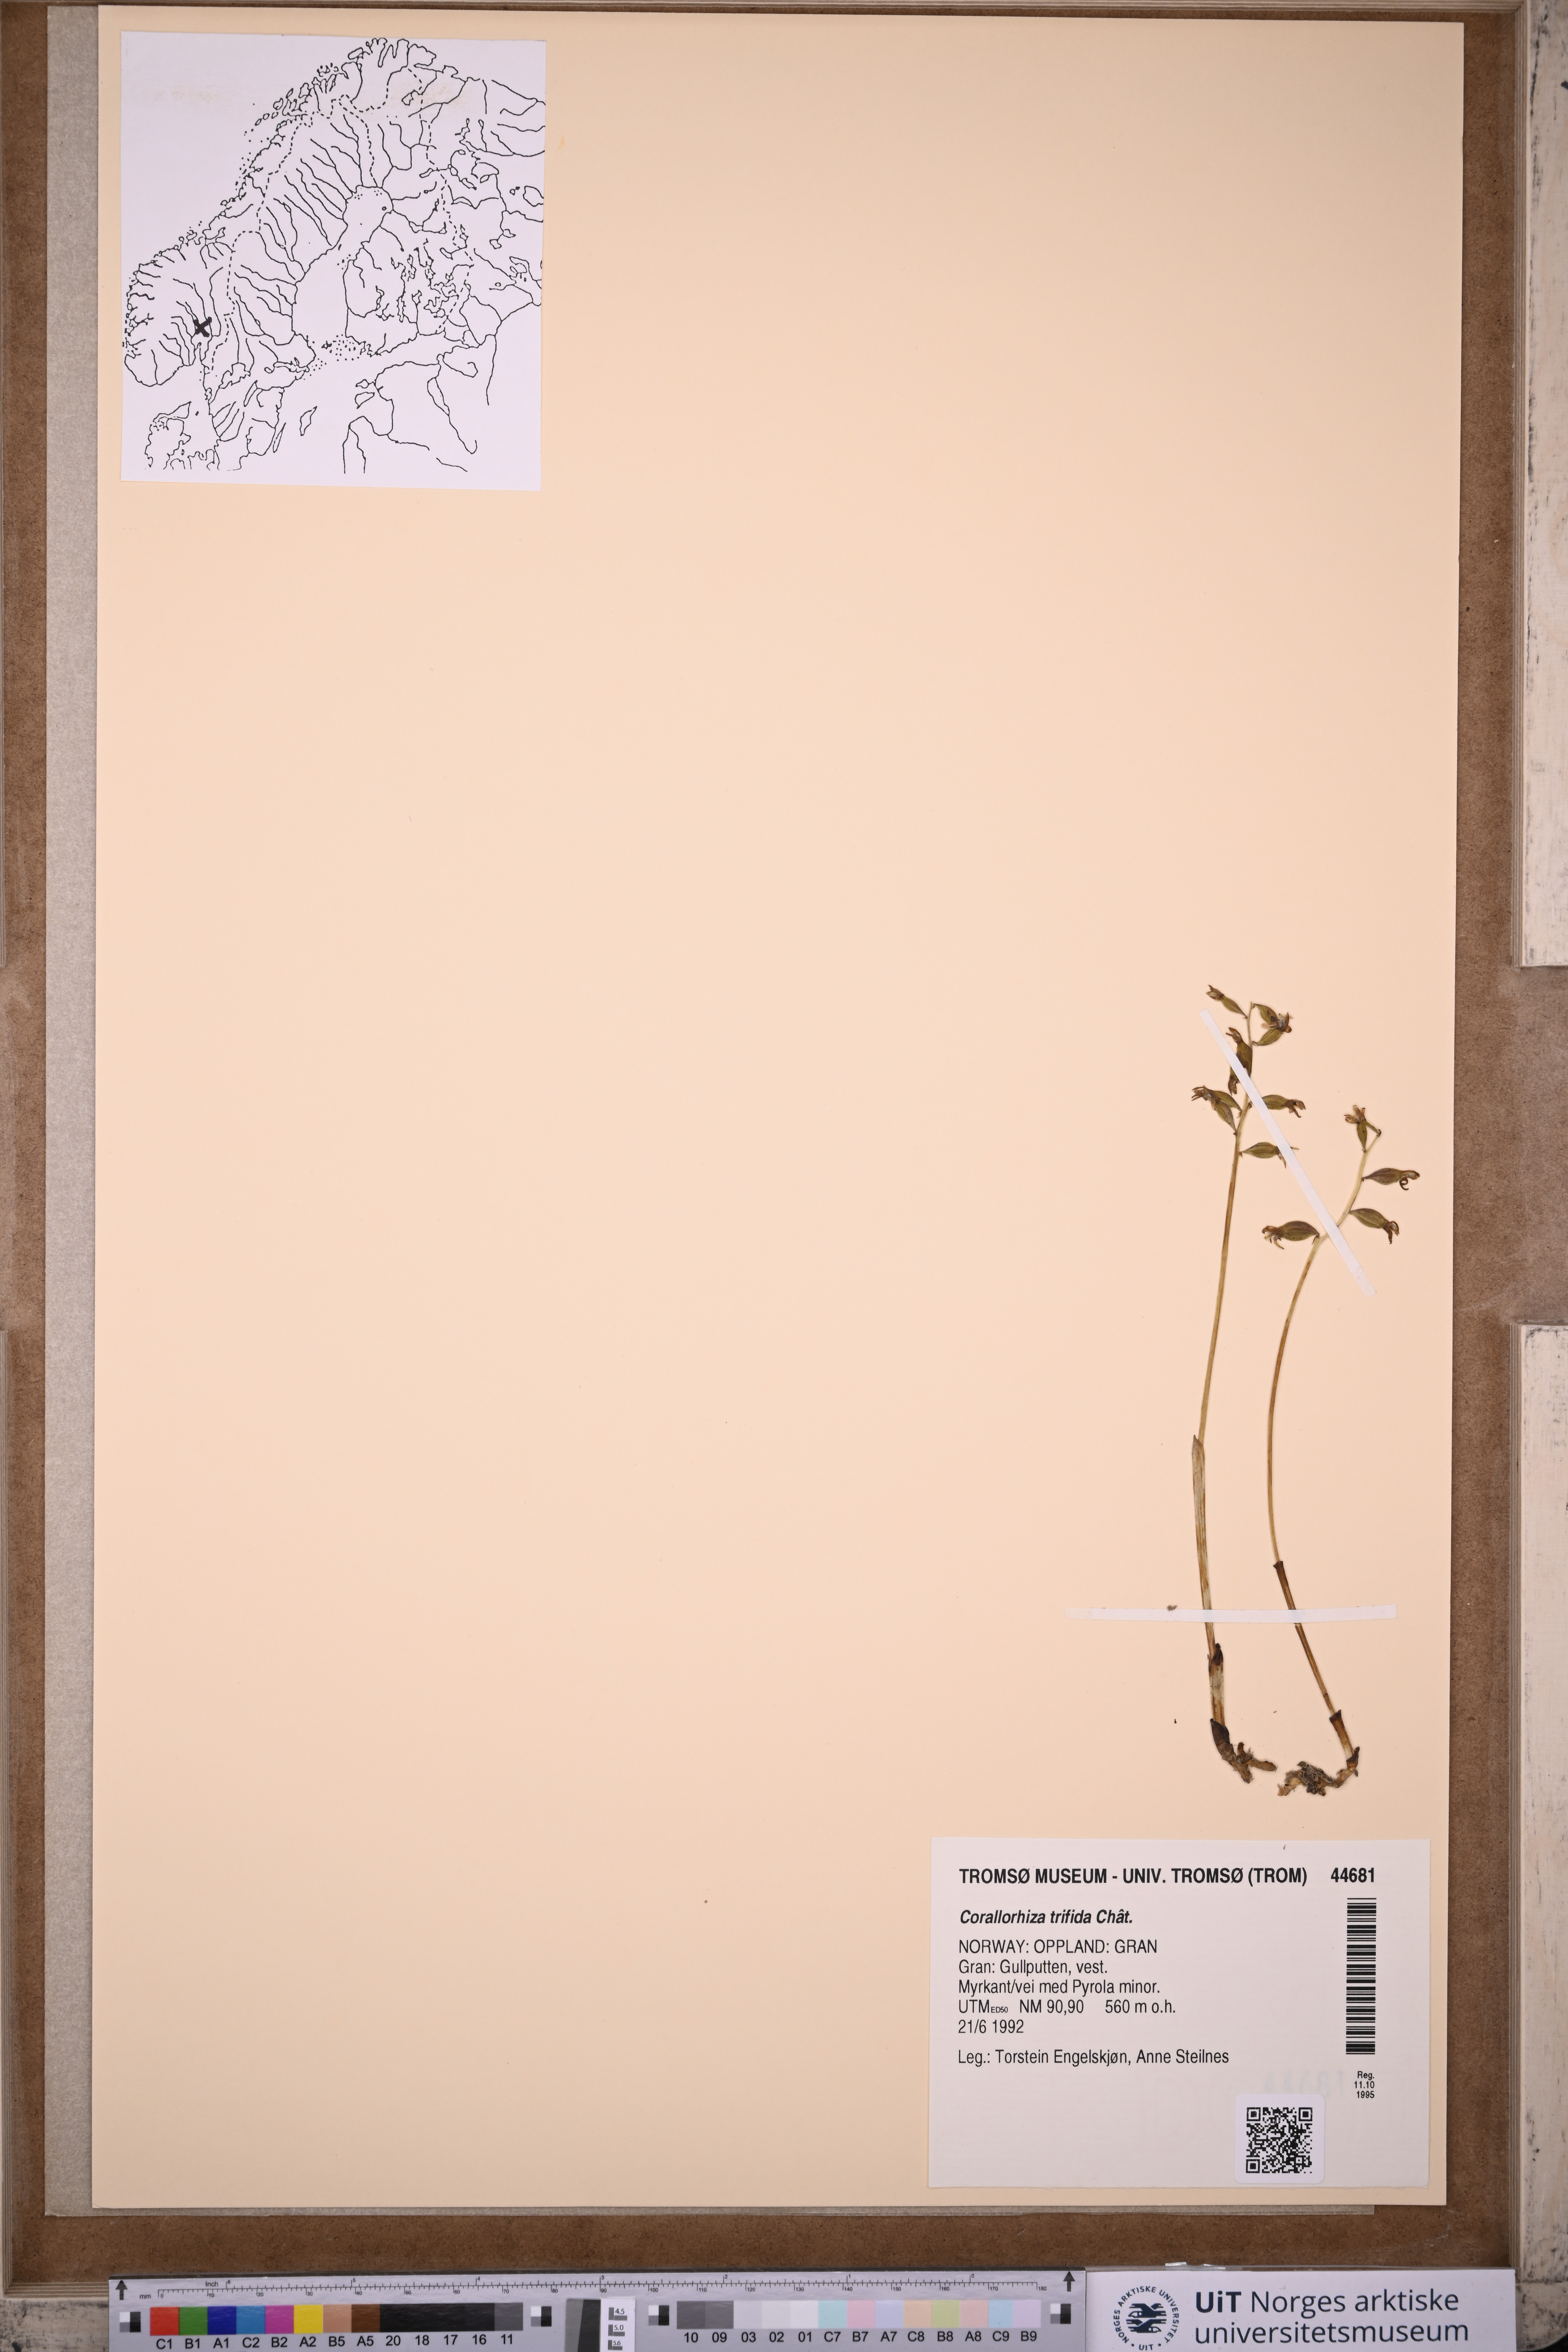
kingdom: Plantae
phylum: Tracheophyta
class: Liliopsida
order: Asparagales
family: Orchidaceae
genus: Corallorhiza
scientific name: Corallorhiza trifida
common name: Yellow coralroot
